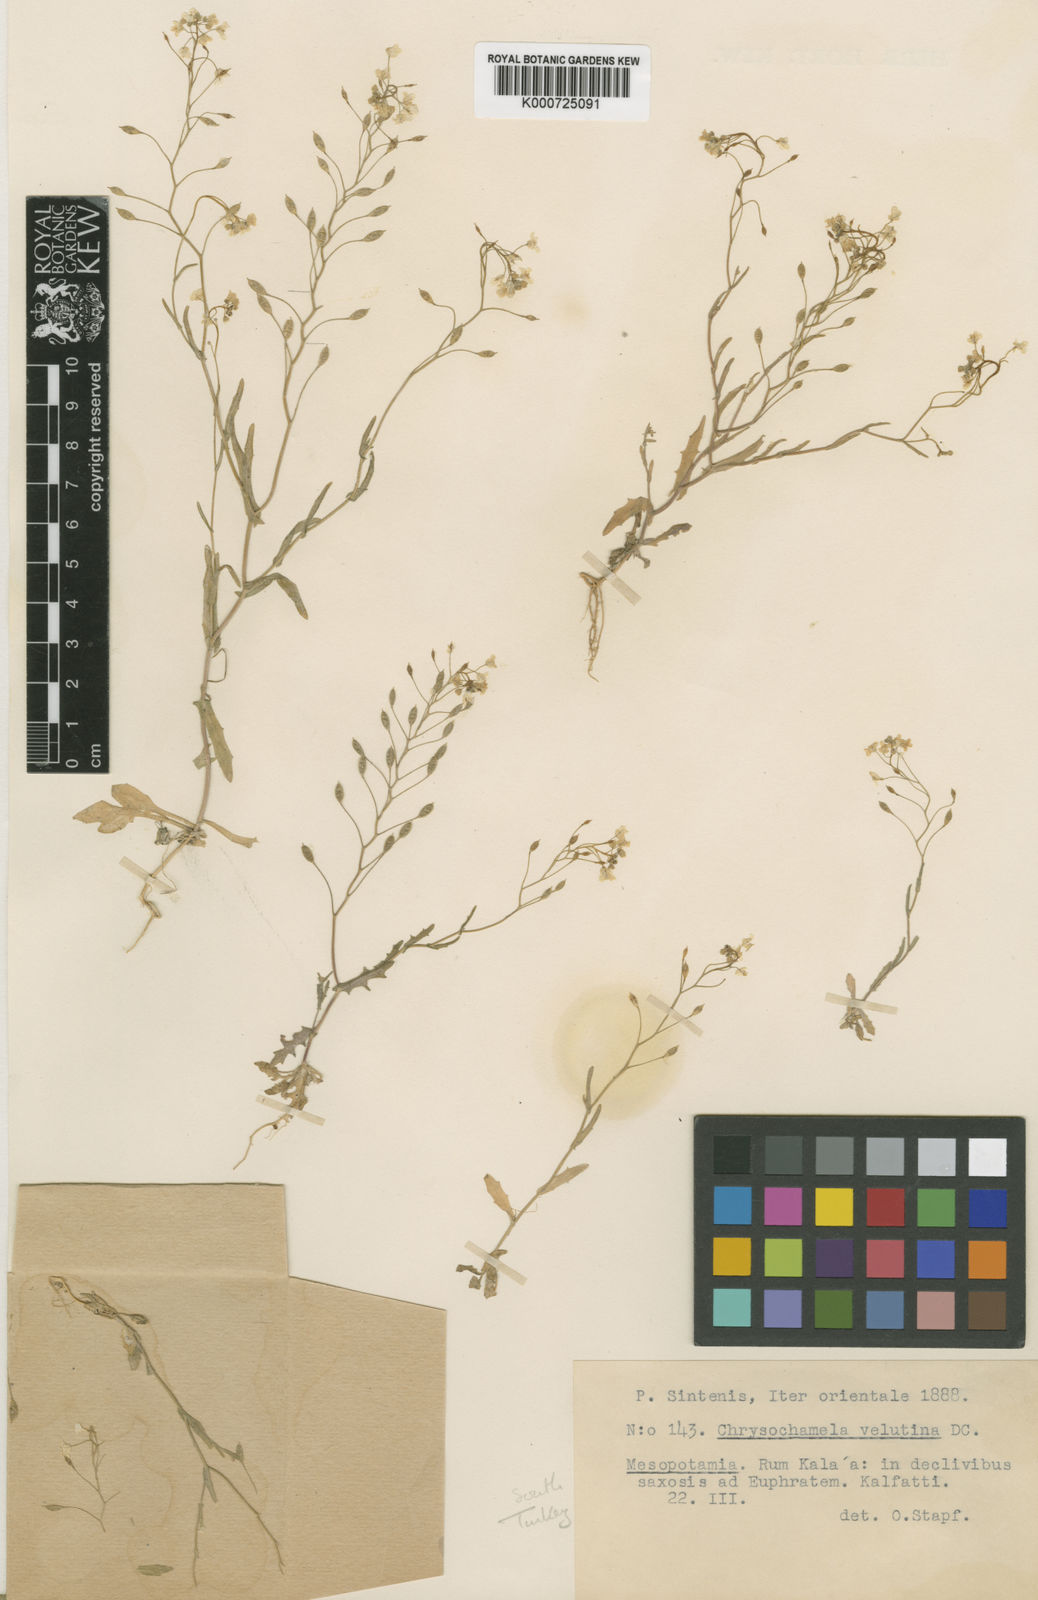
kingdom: Plantae
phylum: Tracheophyta
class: Magnoliopsida
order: Brassicales
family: Brassicaceae
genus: Chrysochamela
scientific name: Chrysochamela velutina
